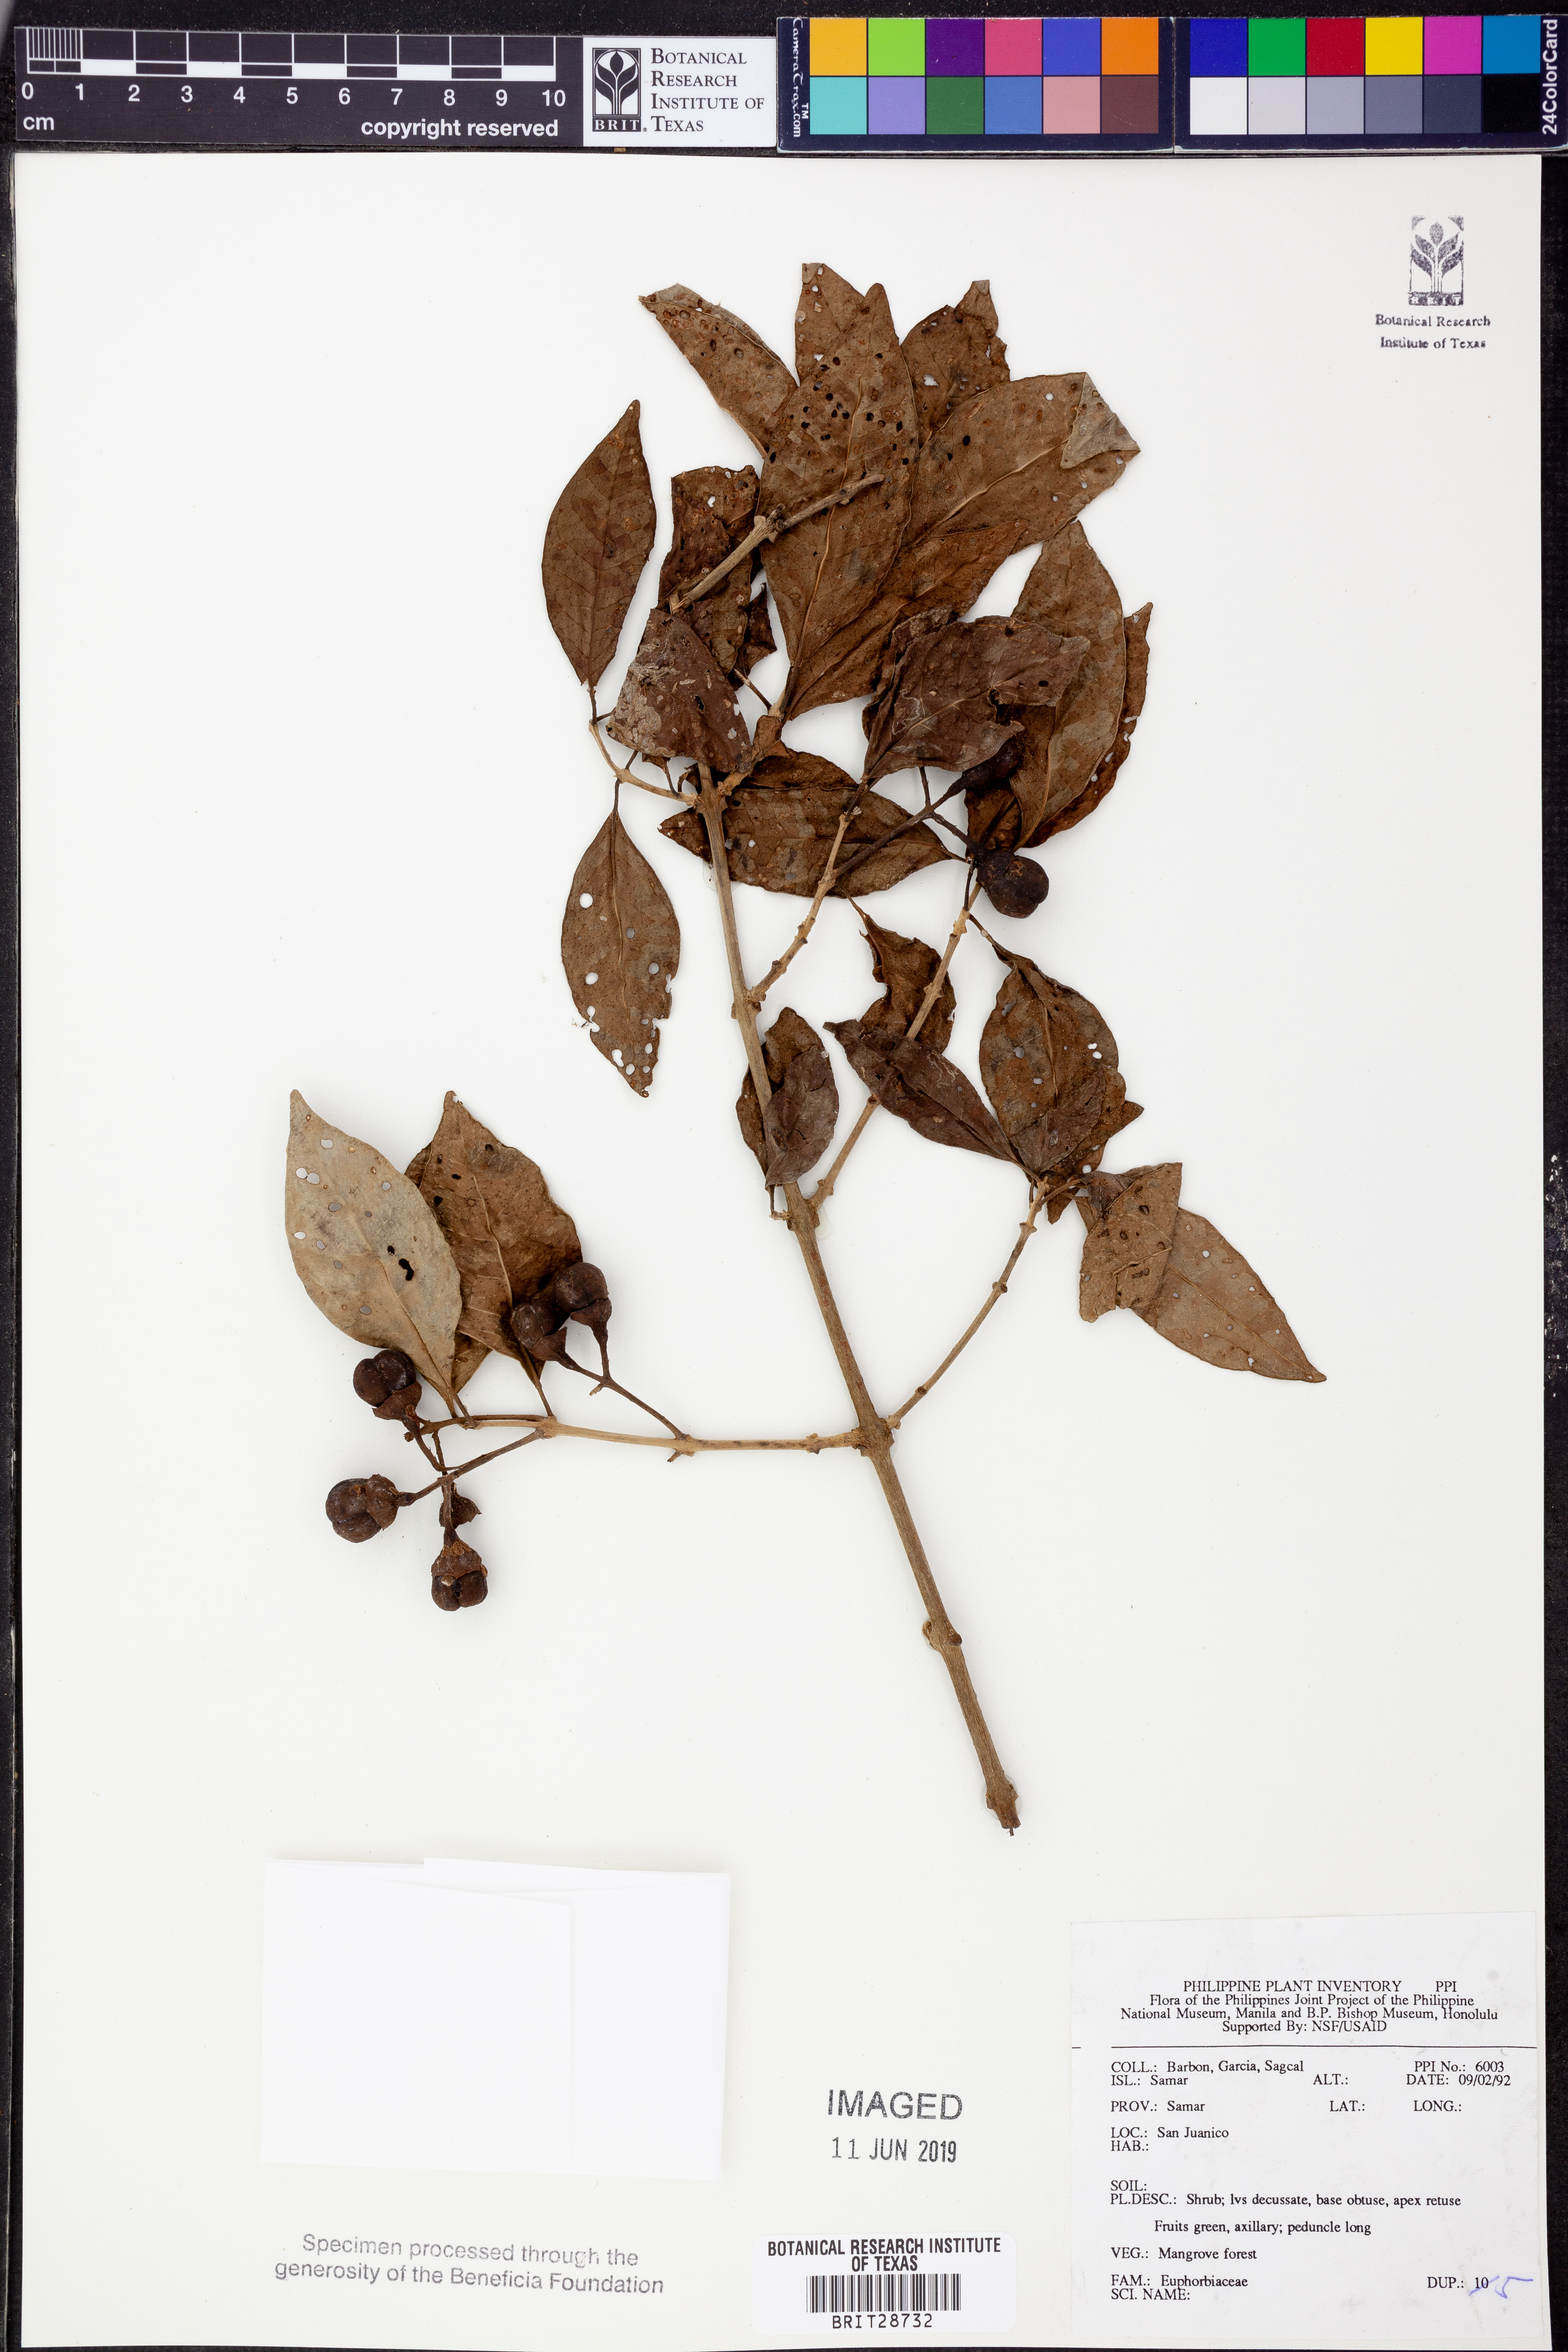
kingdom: Plantae
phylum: Tracheophyta
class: Magnoliopsida
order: Malpighiales
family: Euphorbiaceae
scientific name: Euphorbiaceae
